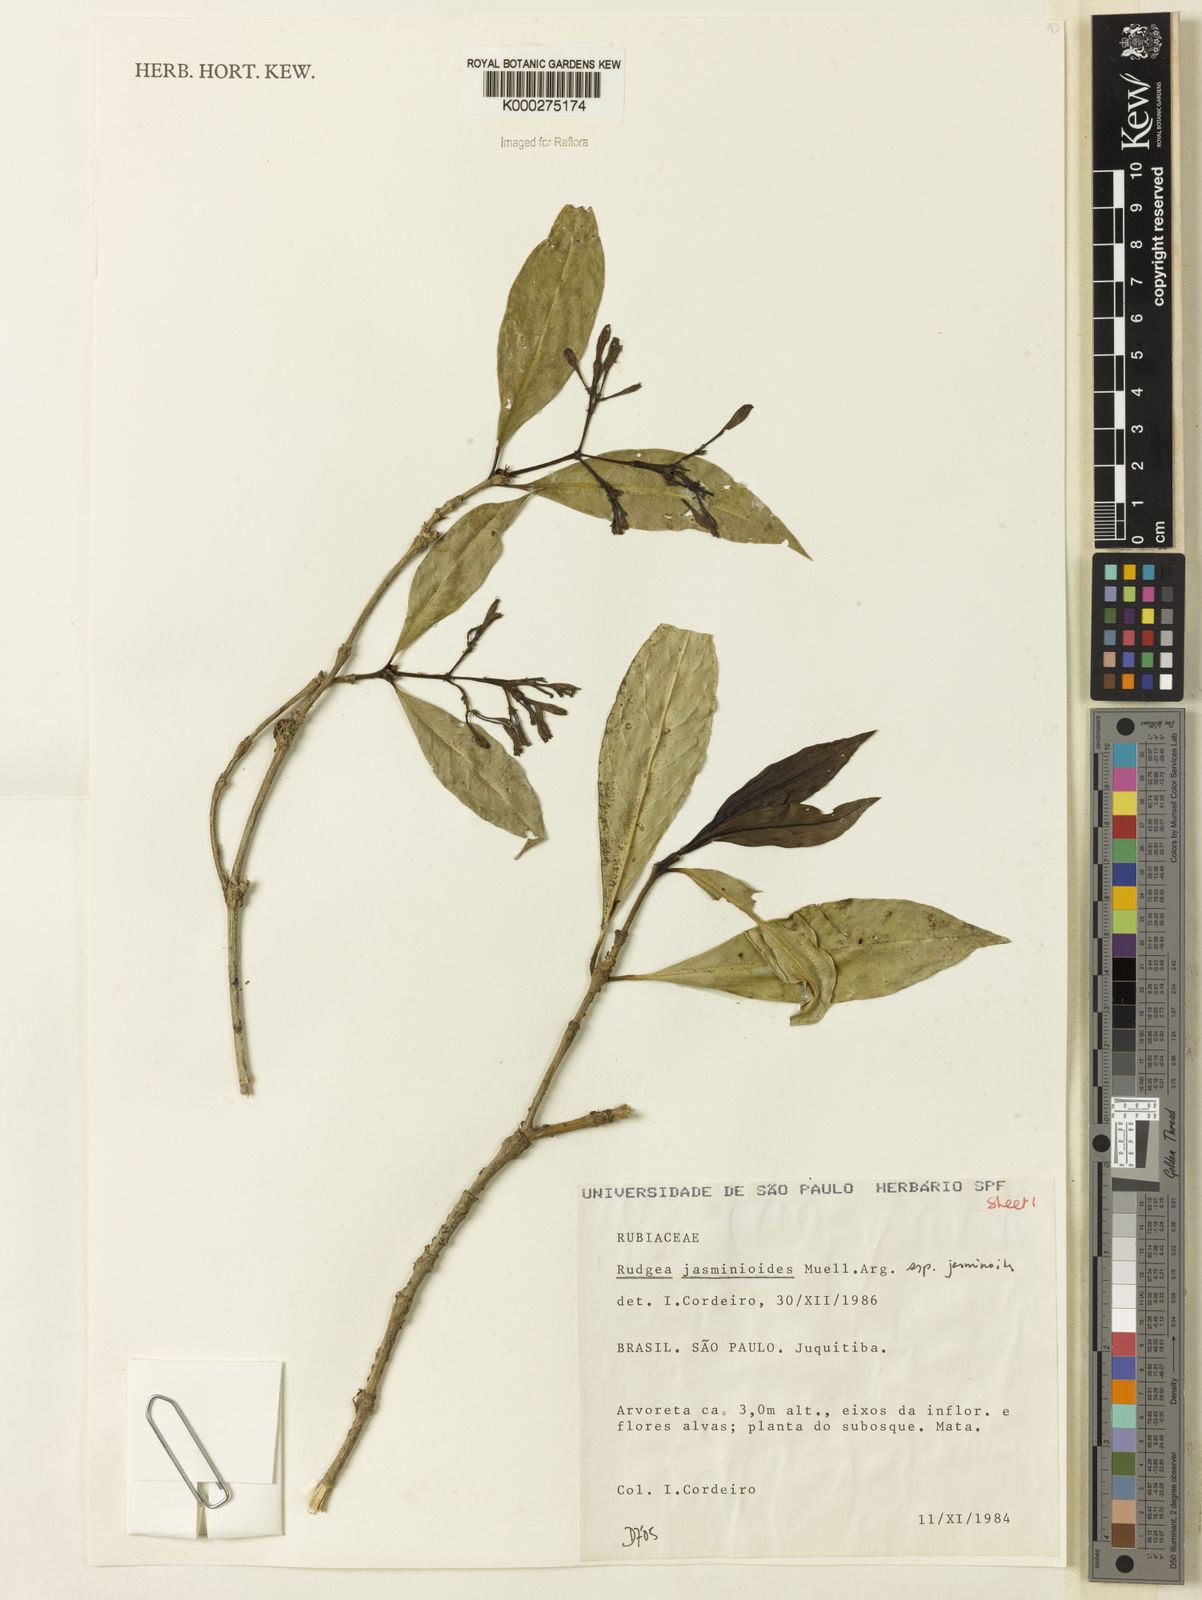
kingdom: Plantae
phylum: Tracheophyta
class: Magnoliopsida
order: Gentianales
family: Rubiaceae
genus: Rudgea
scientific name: Rudgea jasminoides
